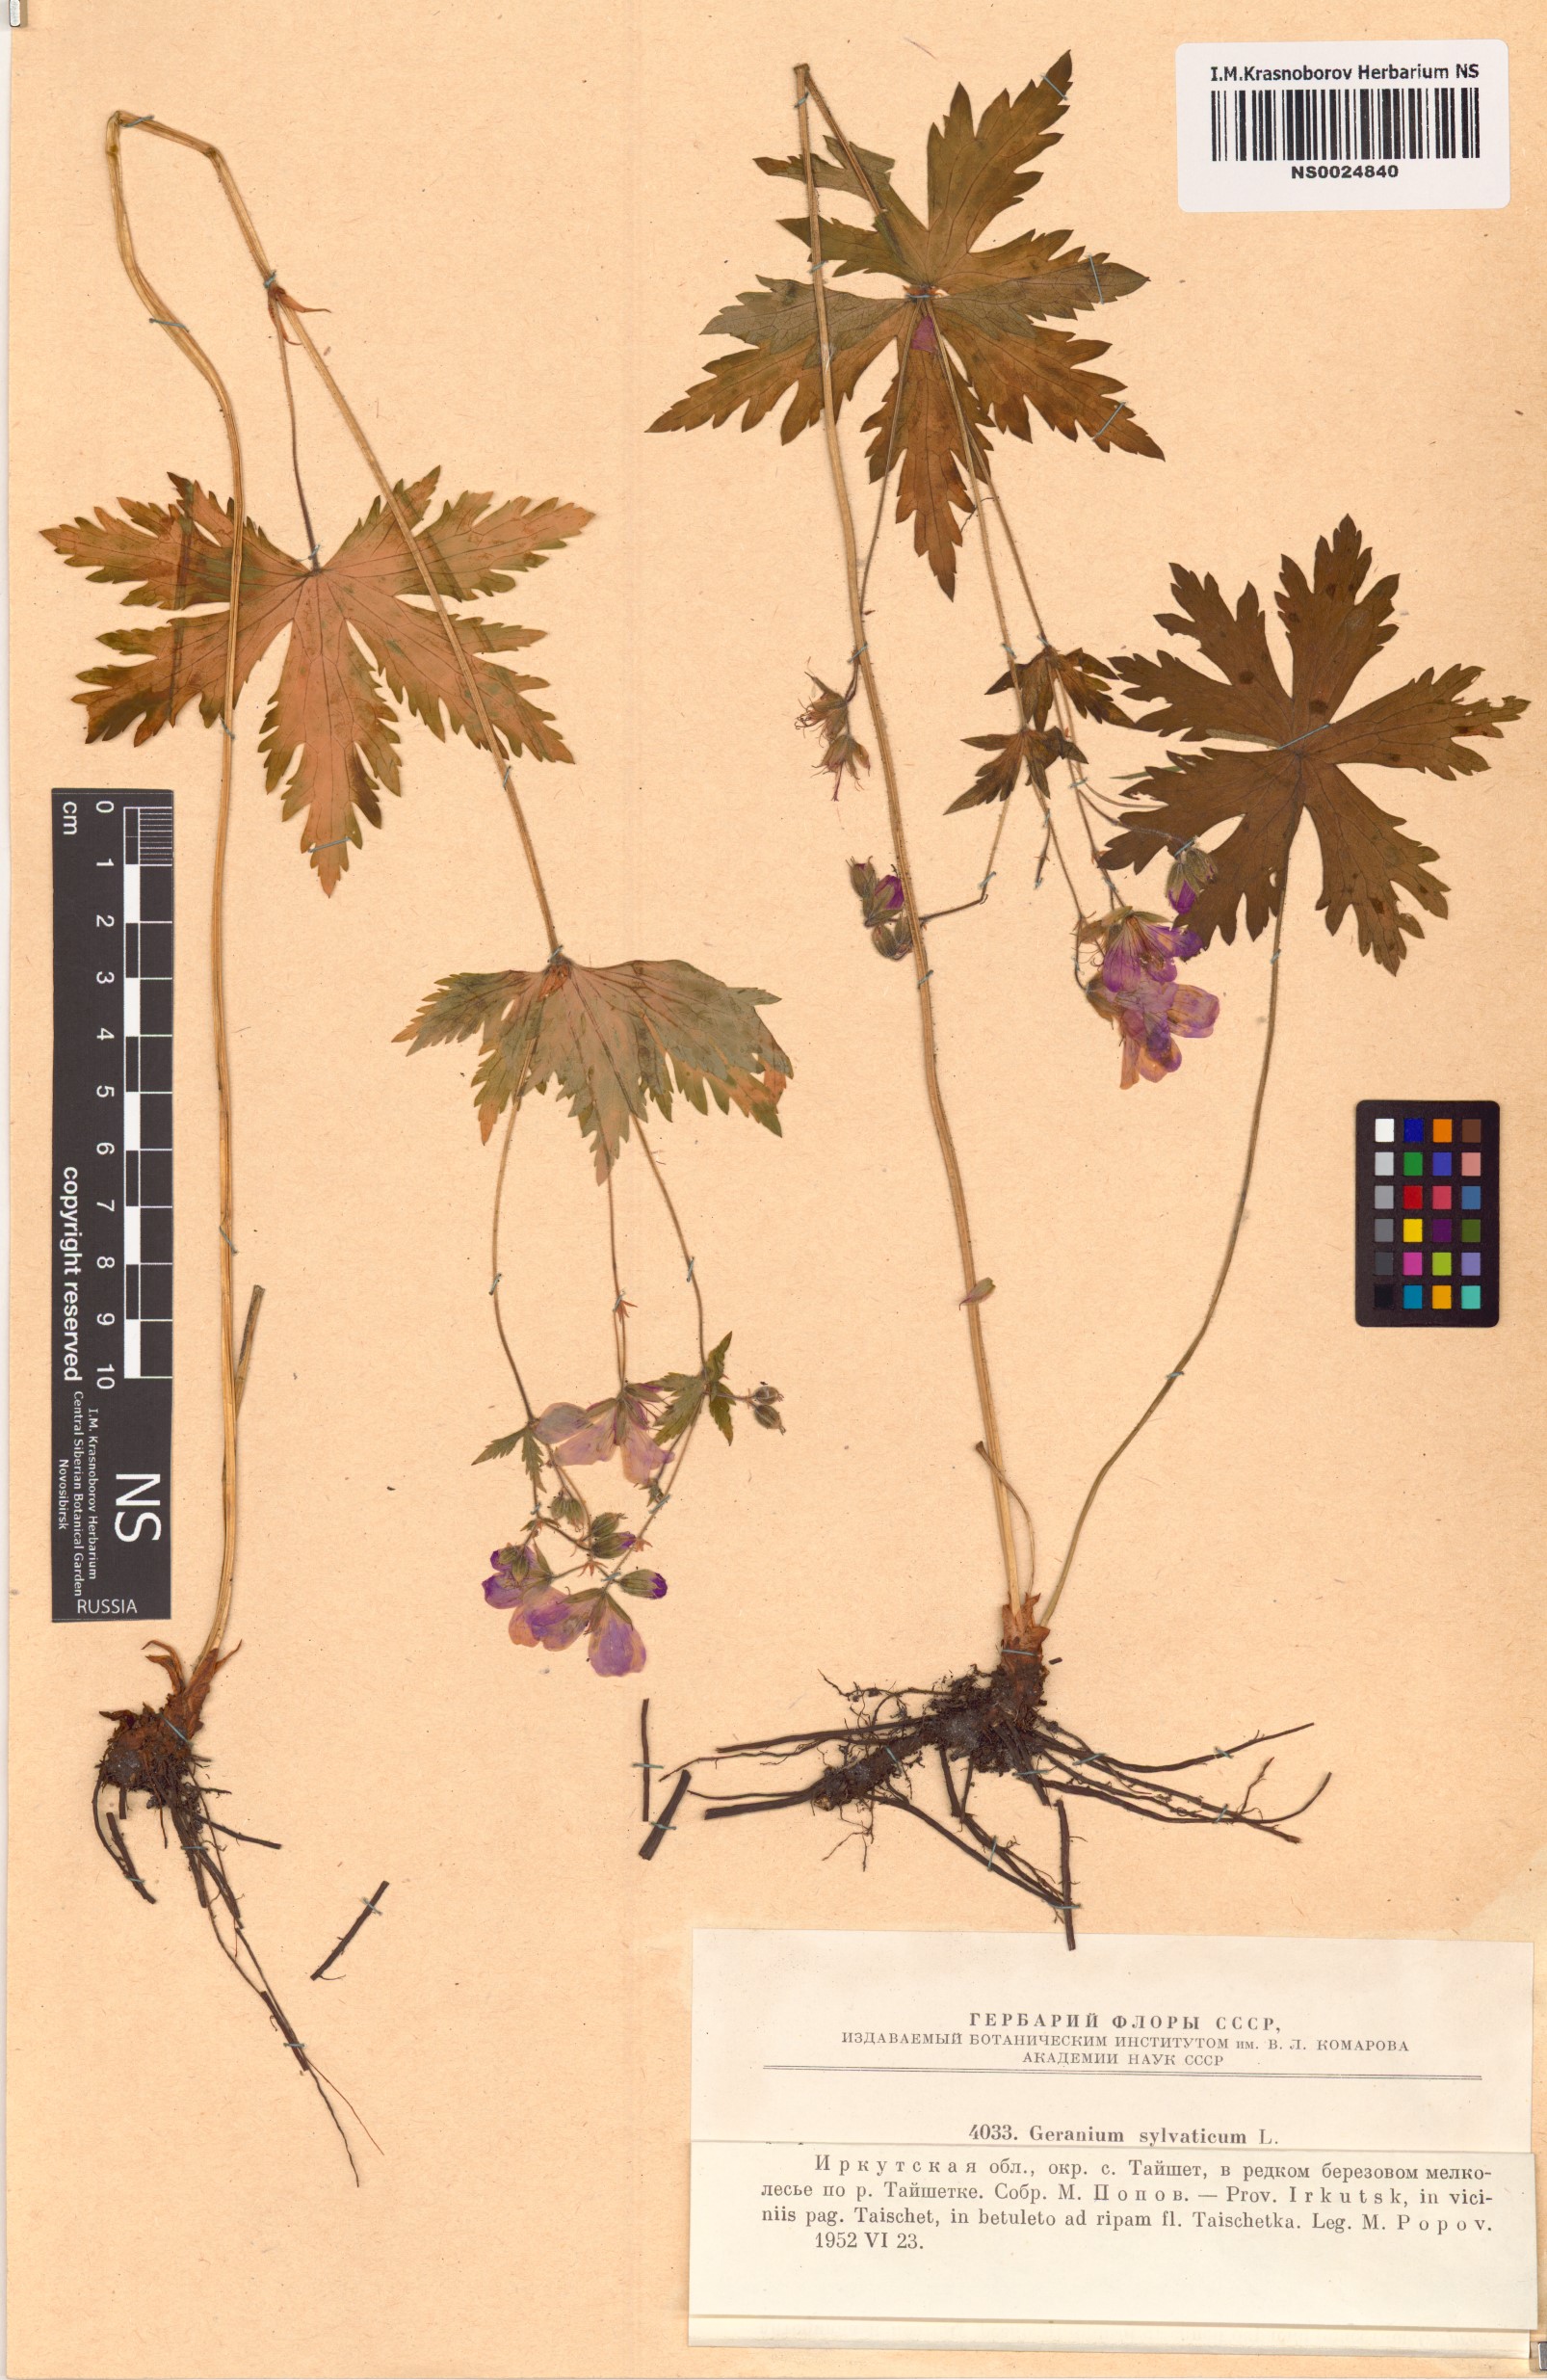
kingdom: Plantae
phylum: Tracheophyta
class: Magnoliopsida
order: Geraniales
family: Geraniaceae
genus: Geranium
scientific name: Geranium sylvaticum
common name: Wood crane's-bill
